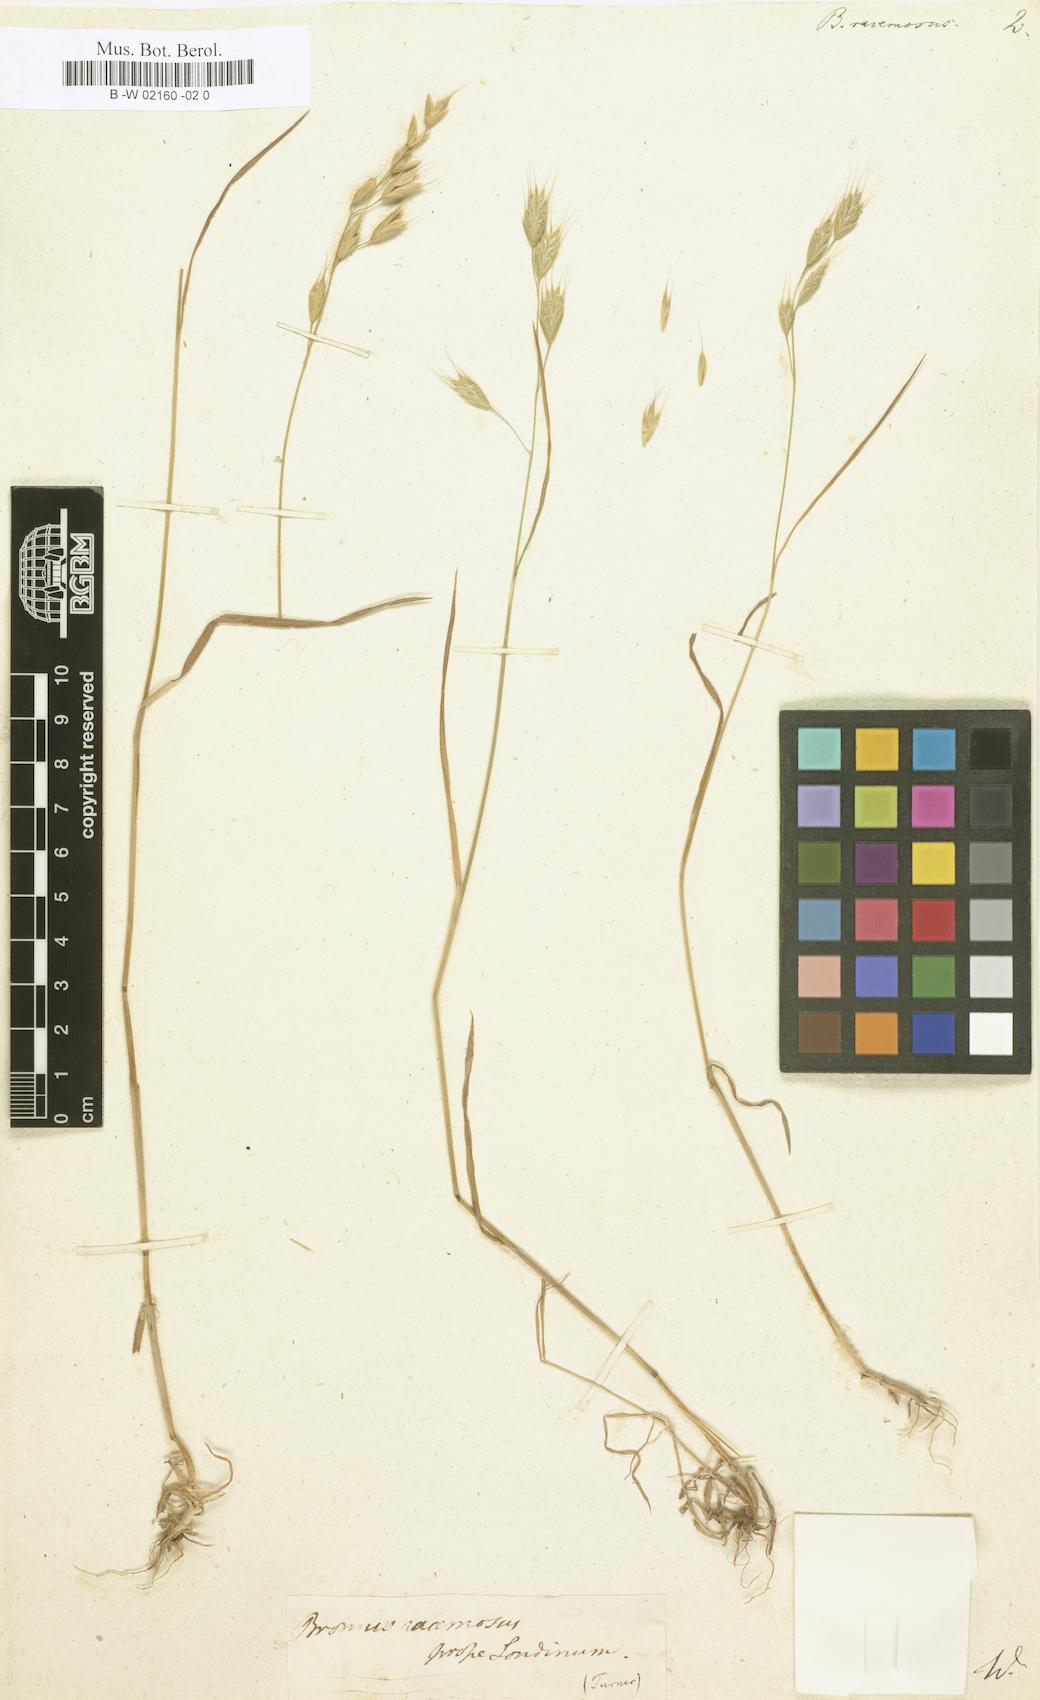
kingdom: Plantae
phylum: Tracheophyta
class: Liliopsida
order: Poales
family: Poaceae
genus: Bromus
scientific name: Bromus racemosus
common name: Bald brome
